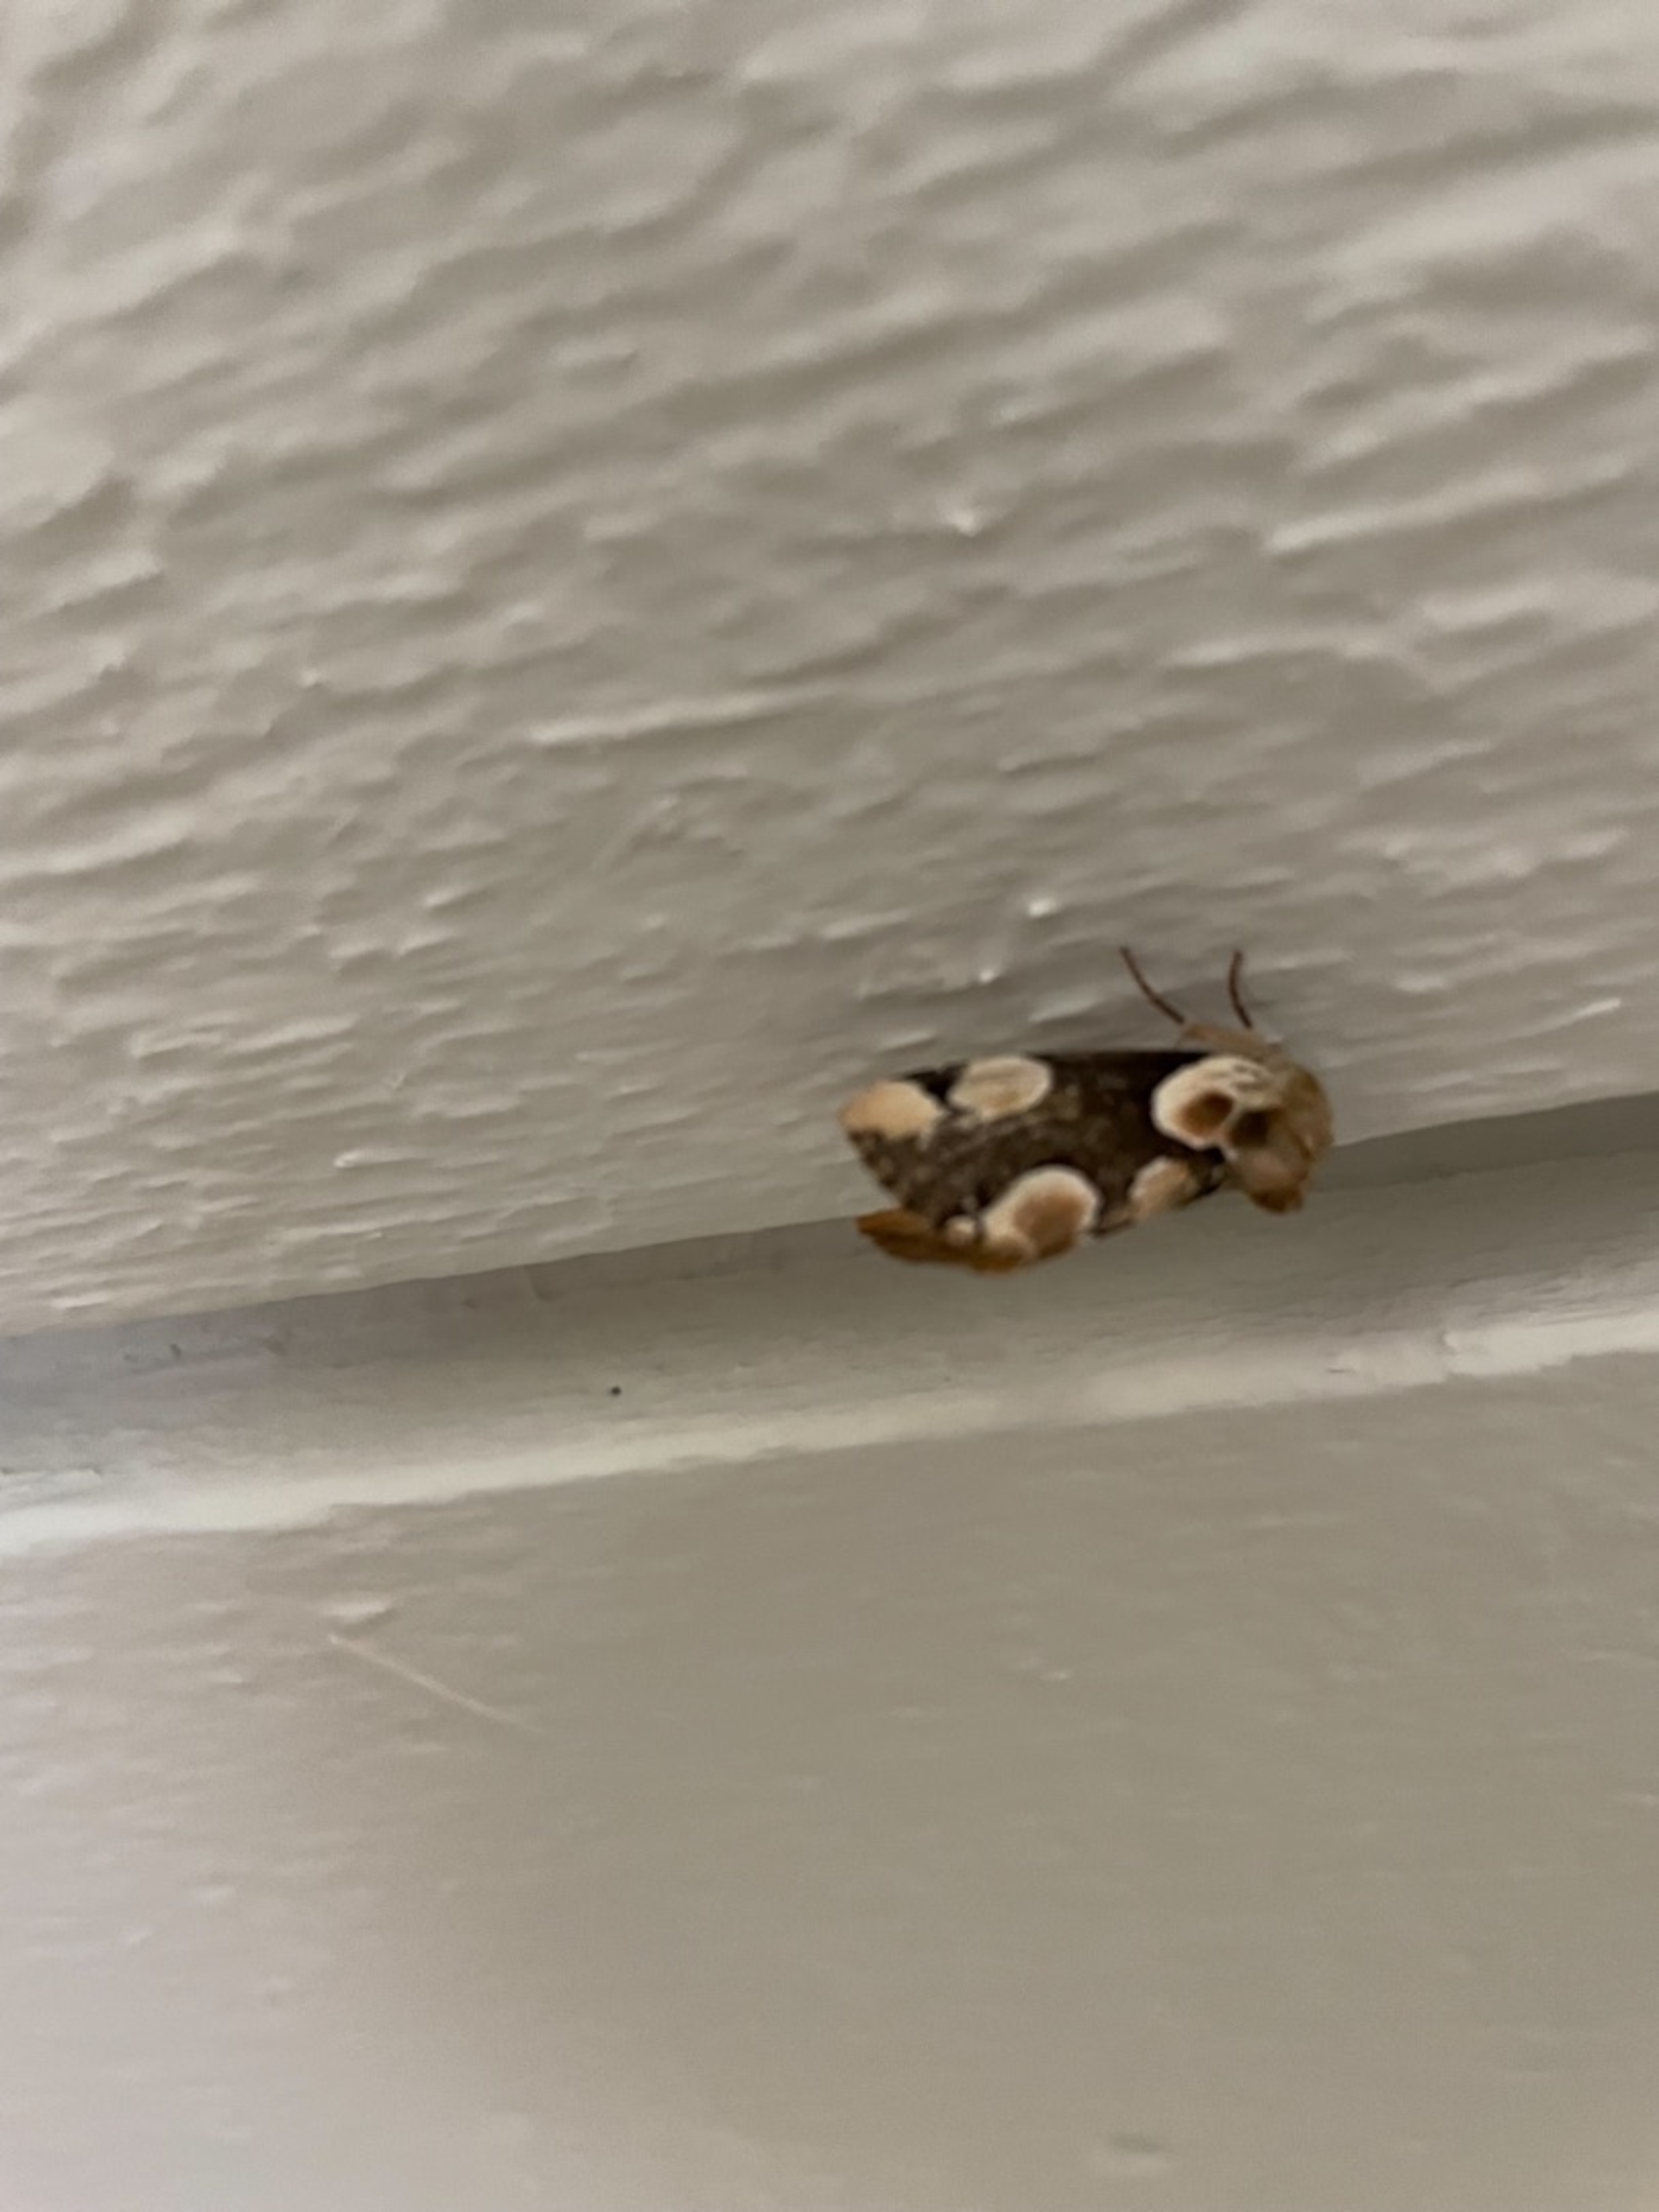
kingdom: Animalia
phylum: Arthropoda
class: Insecta
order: Lepidoptera
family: Drepanidae
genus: Thyatira
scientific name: Thyatira batis
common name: Rosenplet
